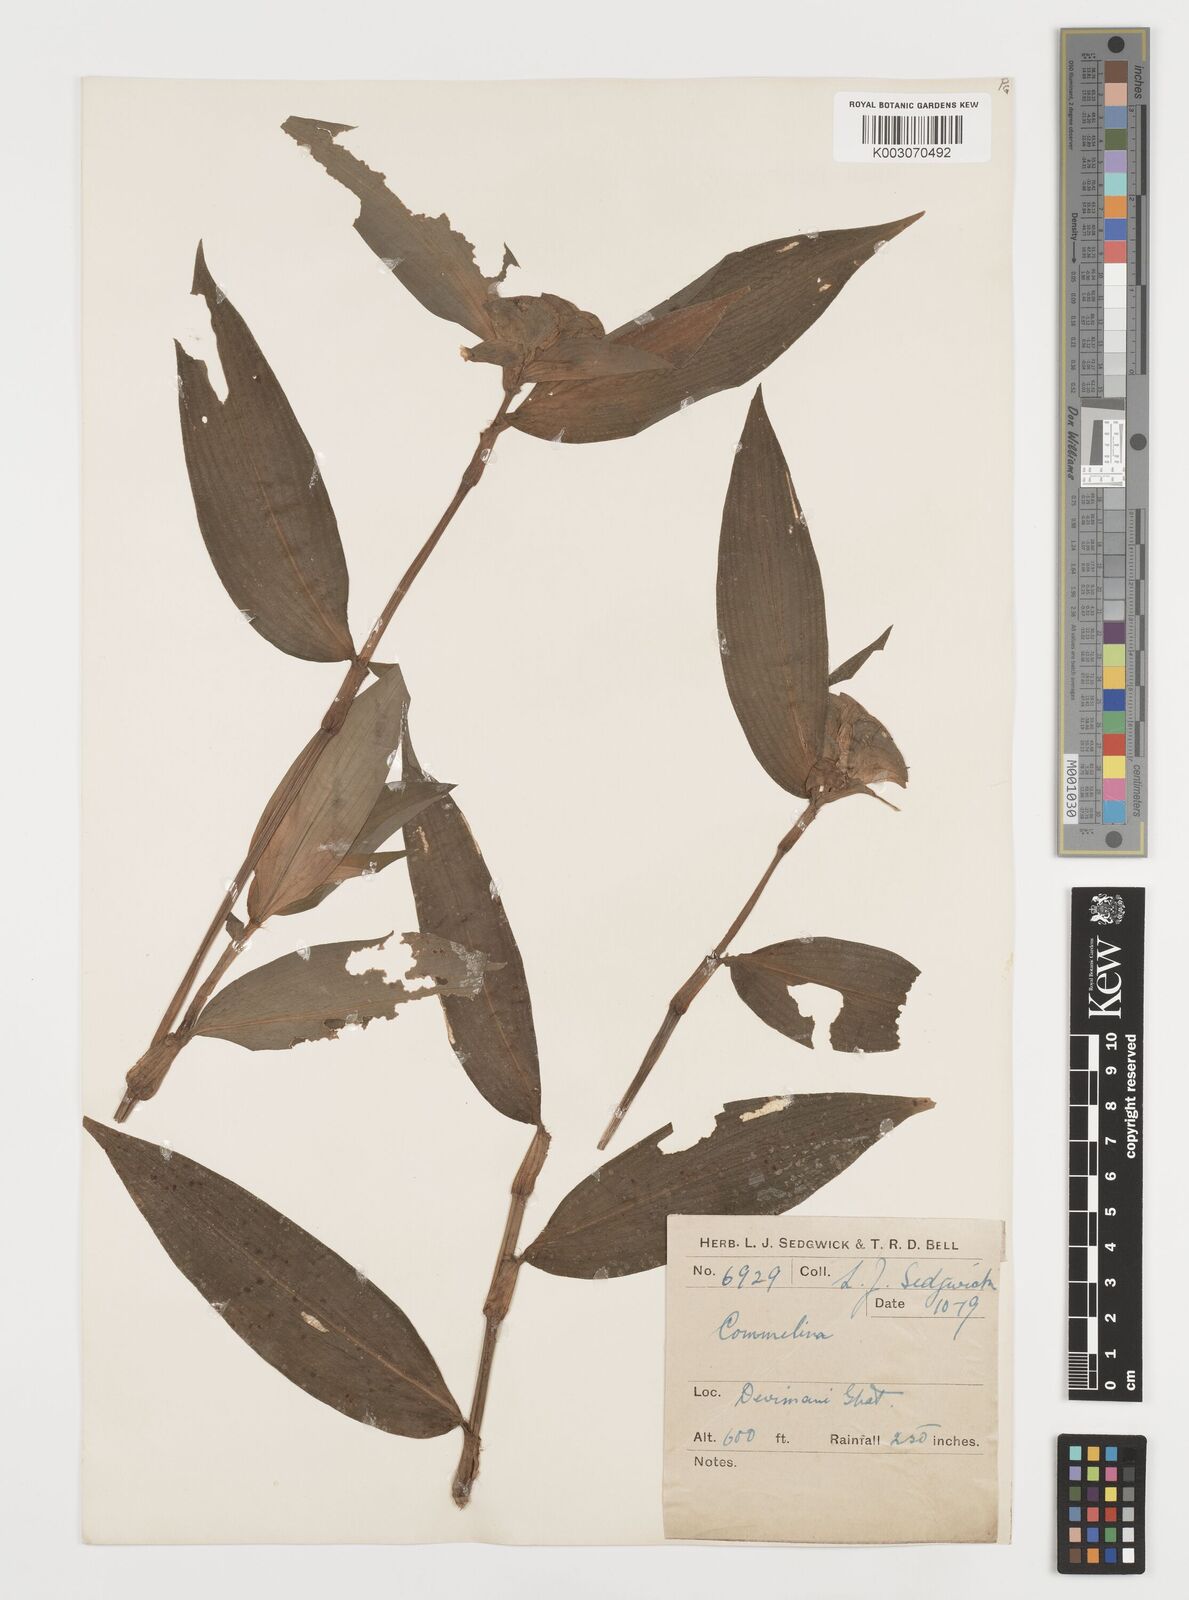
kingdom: Plantae
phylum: Tracheophyta
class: Liliopsida
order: Commelinales
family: Commelinaceae
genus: Commelina
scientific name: Commelina
